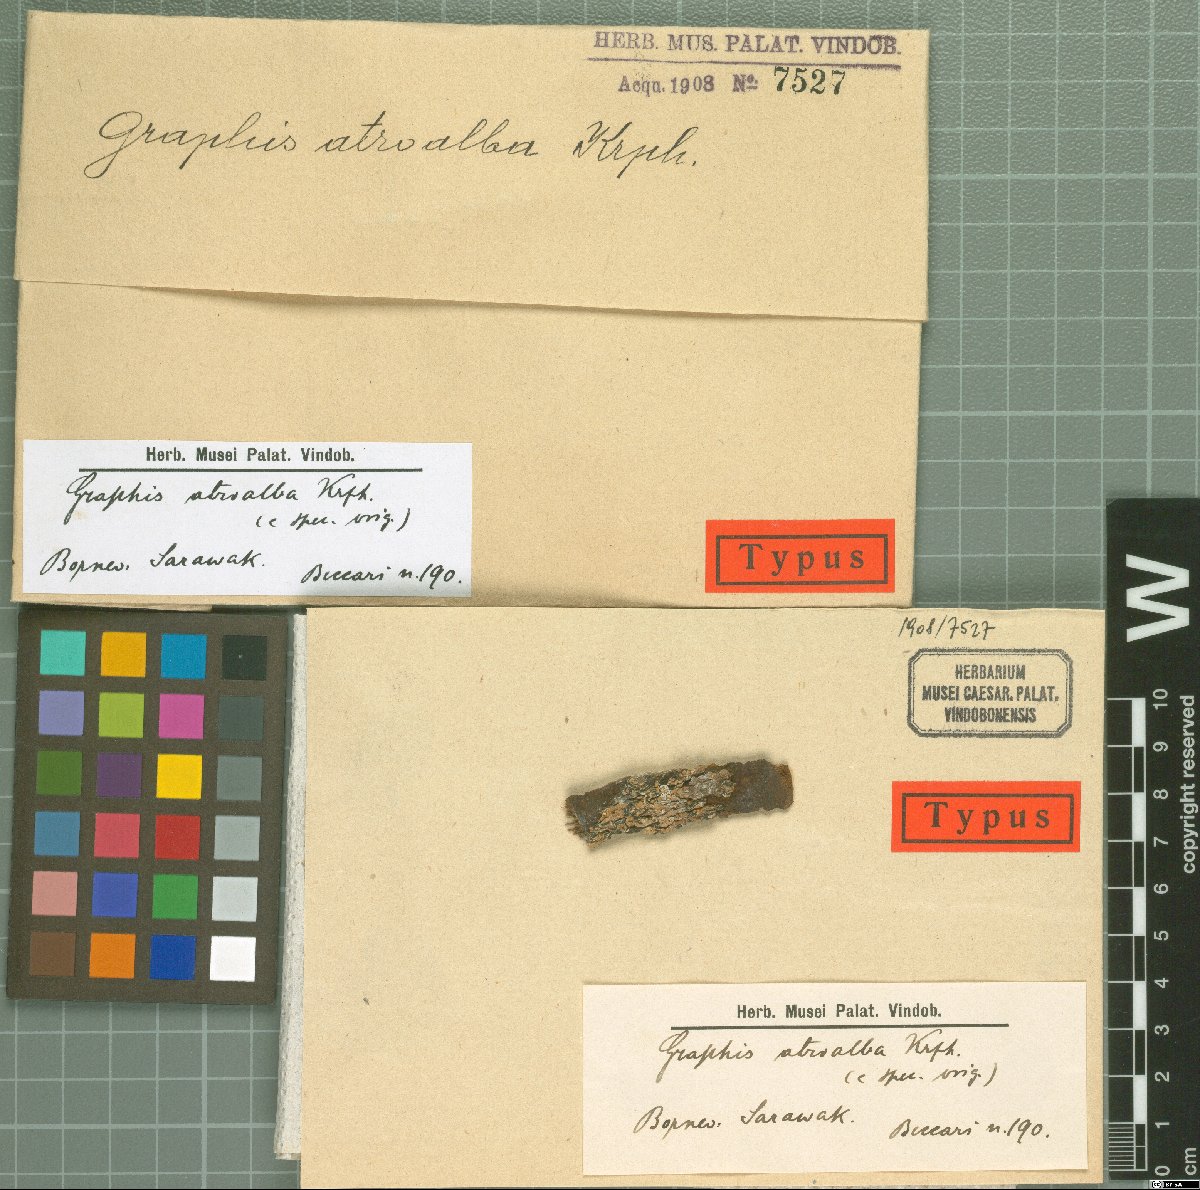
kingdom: Fungi
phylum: Ascomycota
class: Lecanoromycetes
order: Ostropales
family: Graphidaceae
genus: Graphis
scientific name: Graphis
